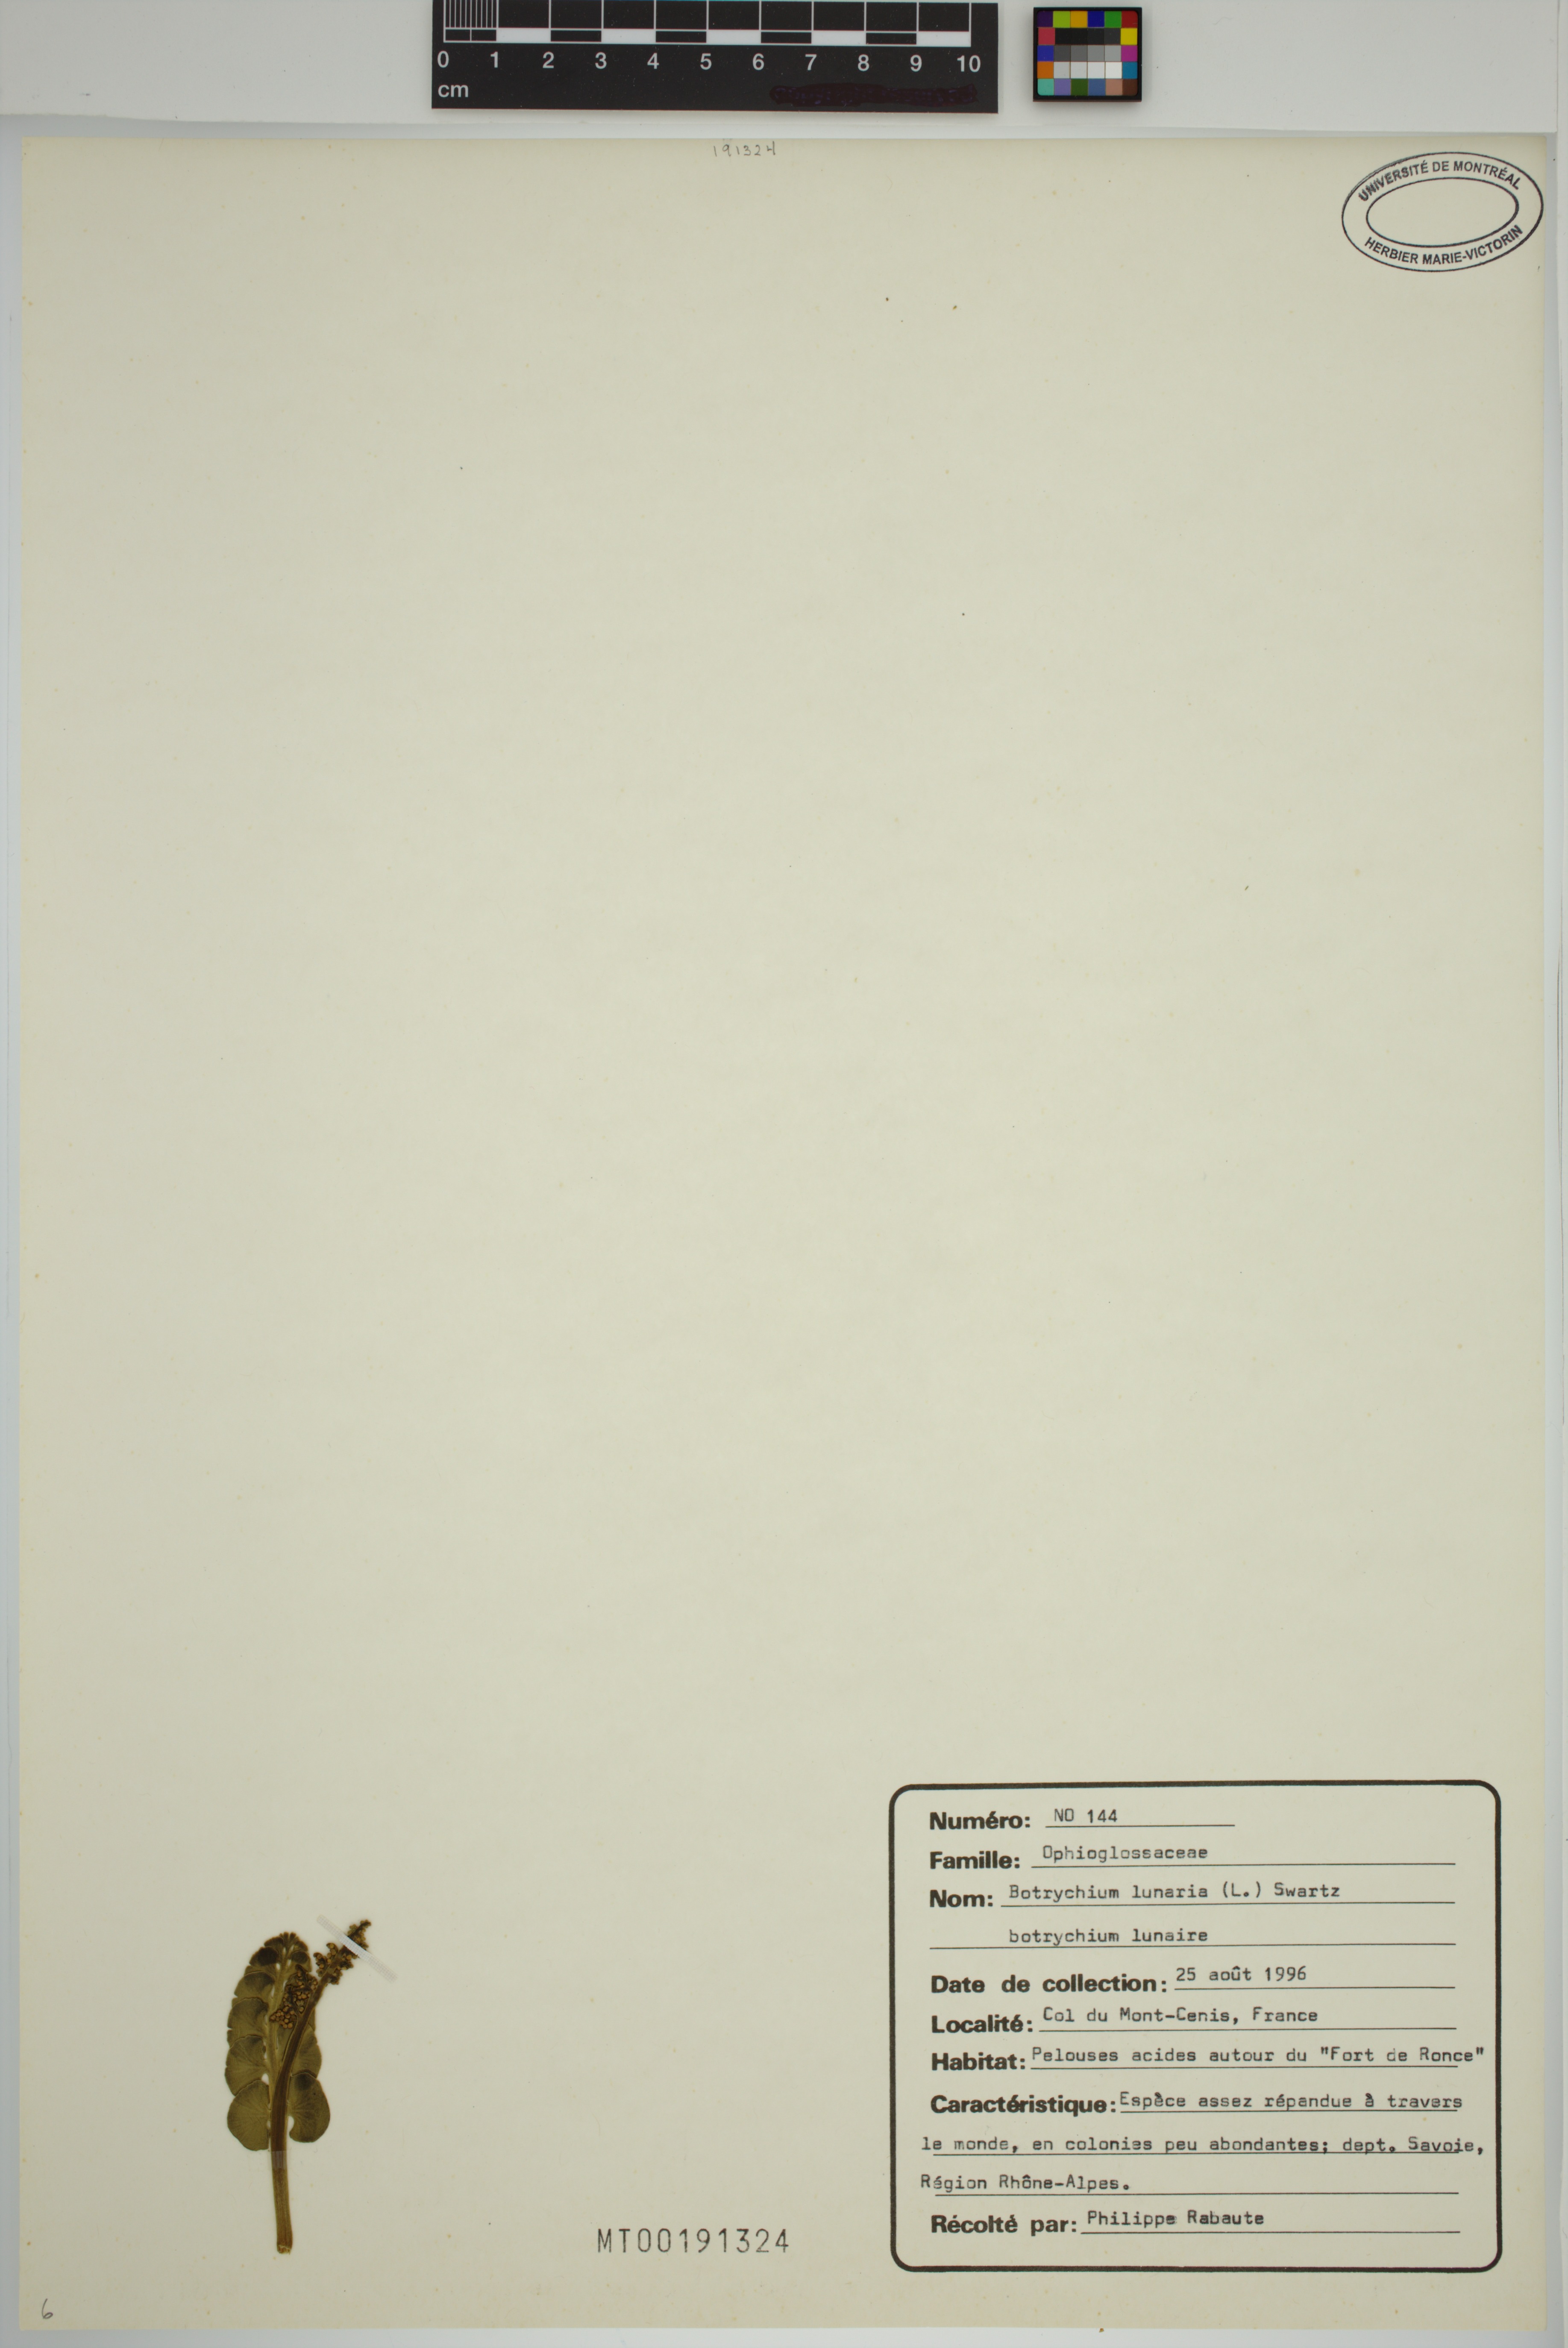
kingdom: Plantae
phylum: Tracheophyta
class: Polypodiopsida
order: Ophioglossales
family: Ophioglossaceae
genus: Botrychium
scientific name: Botrychium lunaria
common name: Moonwort
